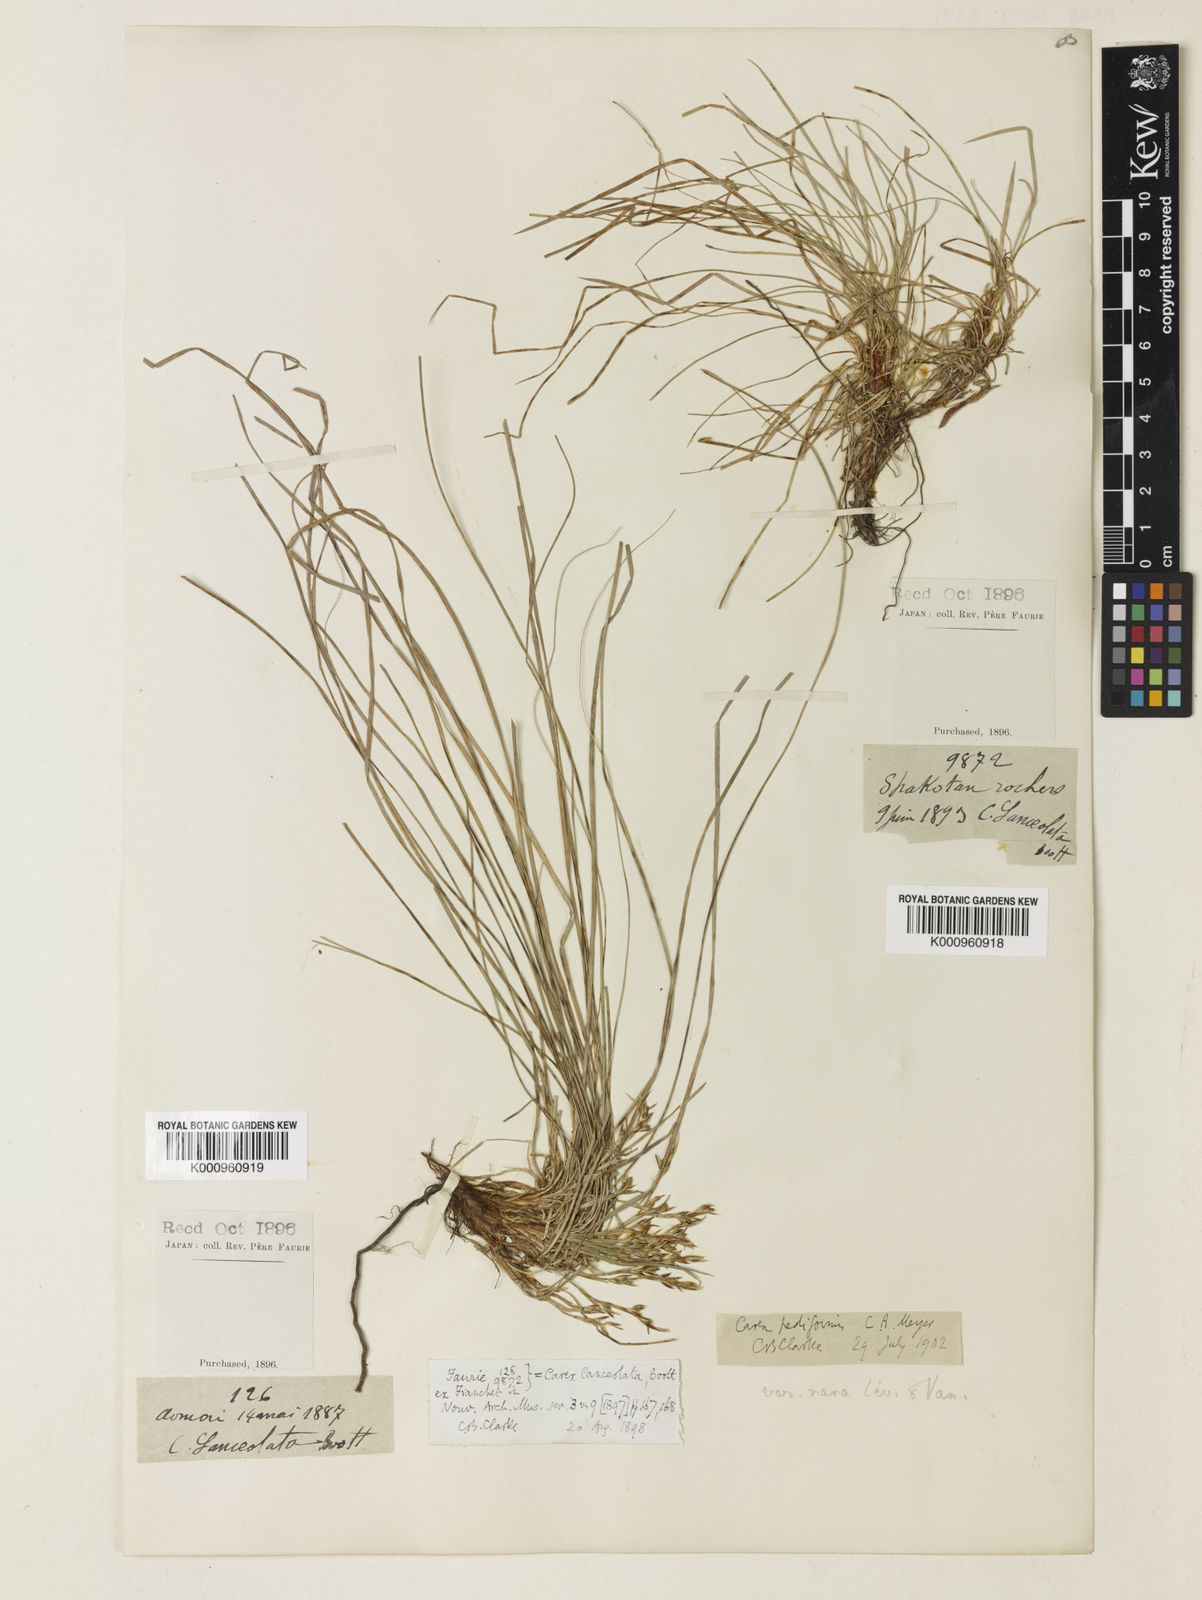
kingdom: Plantae
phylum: Tracheophyta
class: Liliopsida
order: Poales
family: Cyperaceae
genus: Carex
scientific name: Carex lanceolata
